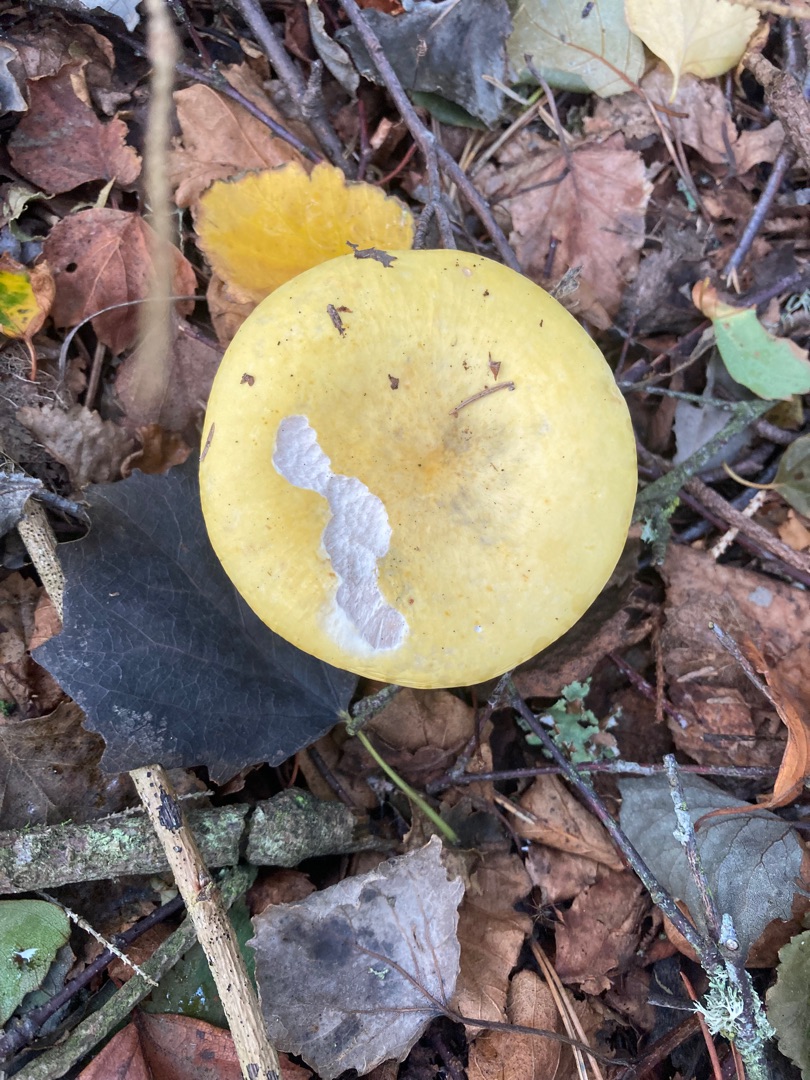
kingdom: Fungi
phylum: Basidiomycota
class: Agaricomycetes
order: Russulales
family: Russulaceae
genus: Russula
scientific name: Russula claroflava
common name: Birke-skørhat
